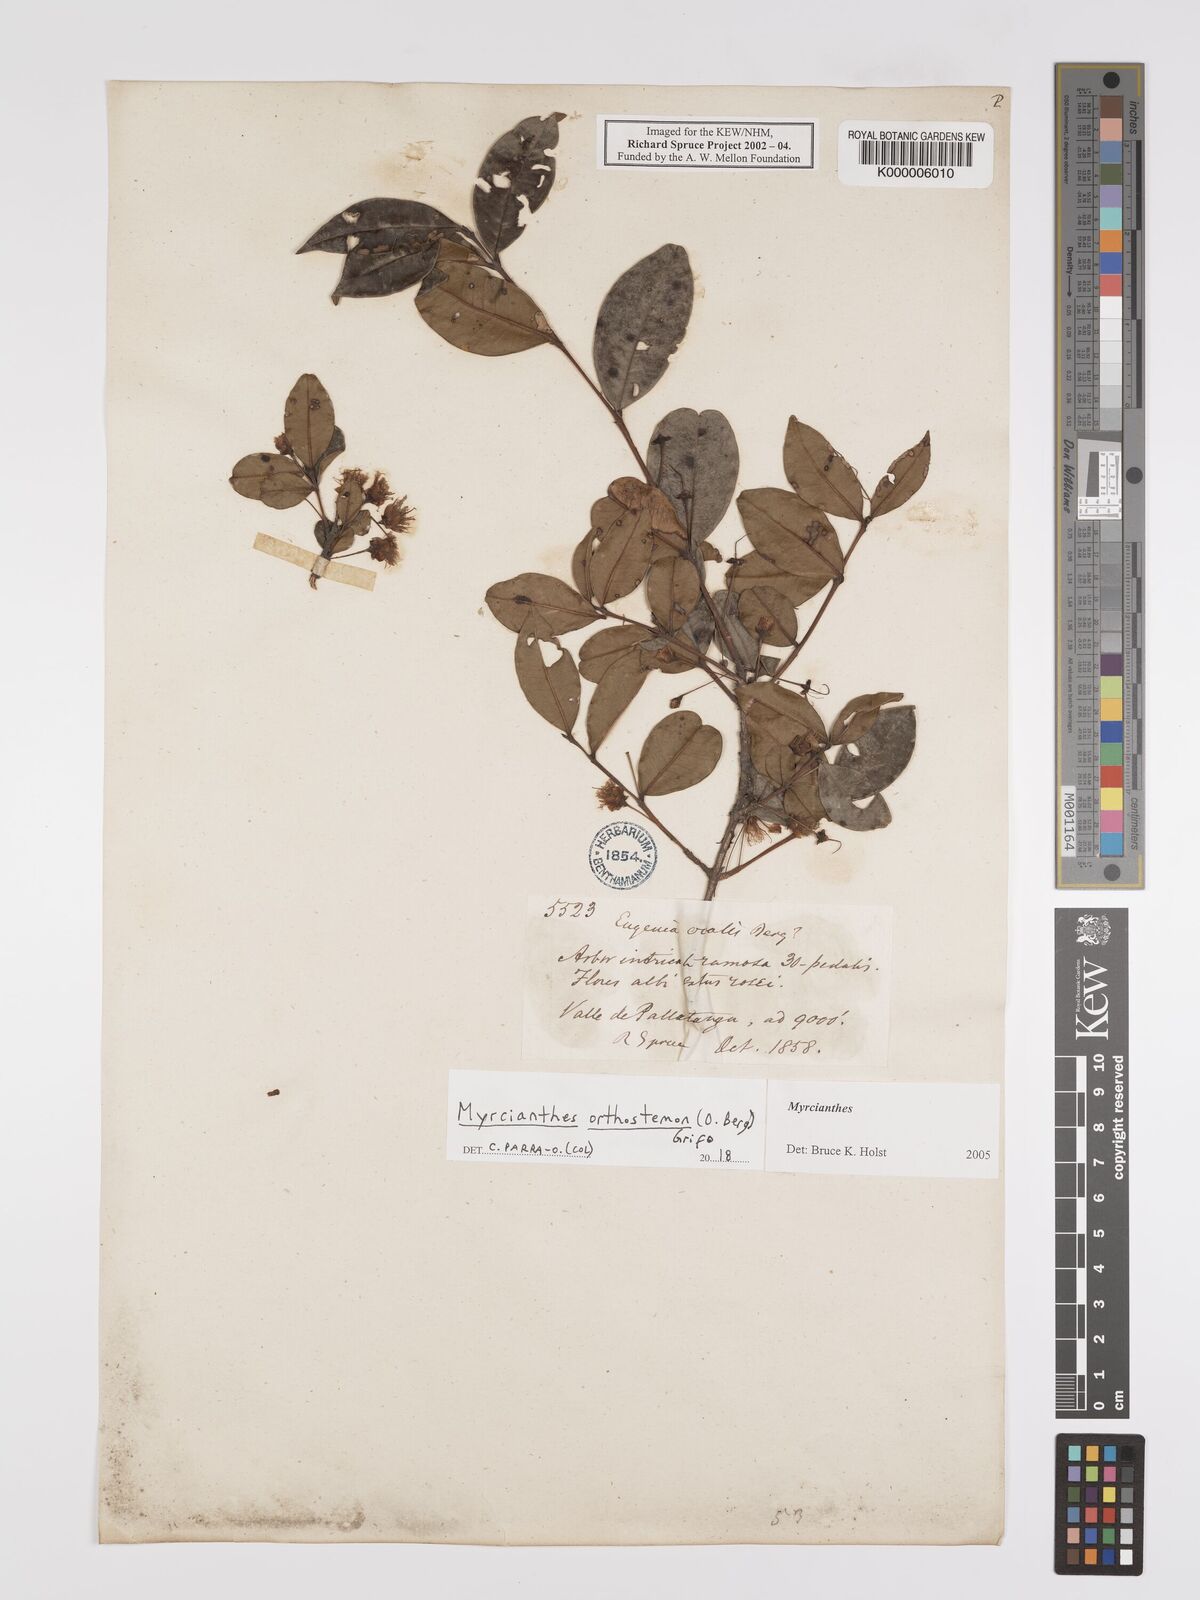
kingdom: Plantae
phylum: Tracheophyta
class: Magnoliopsida
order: Myrtales
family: Myrtaceae
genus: Myrcianthes
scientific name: Myrcianthes
